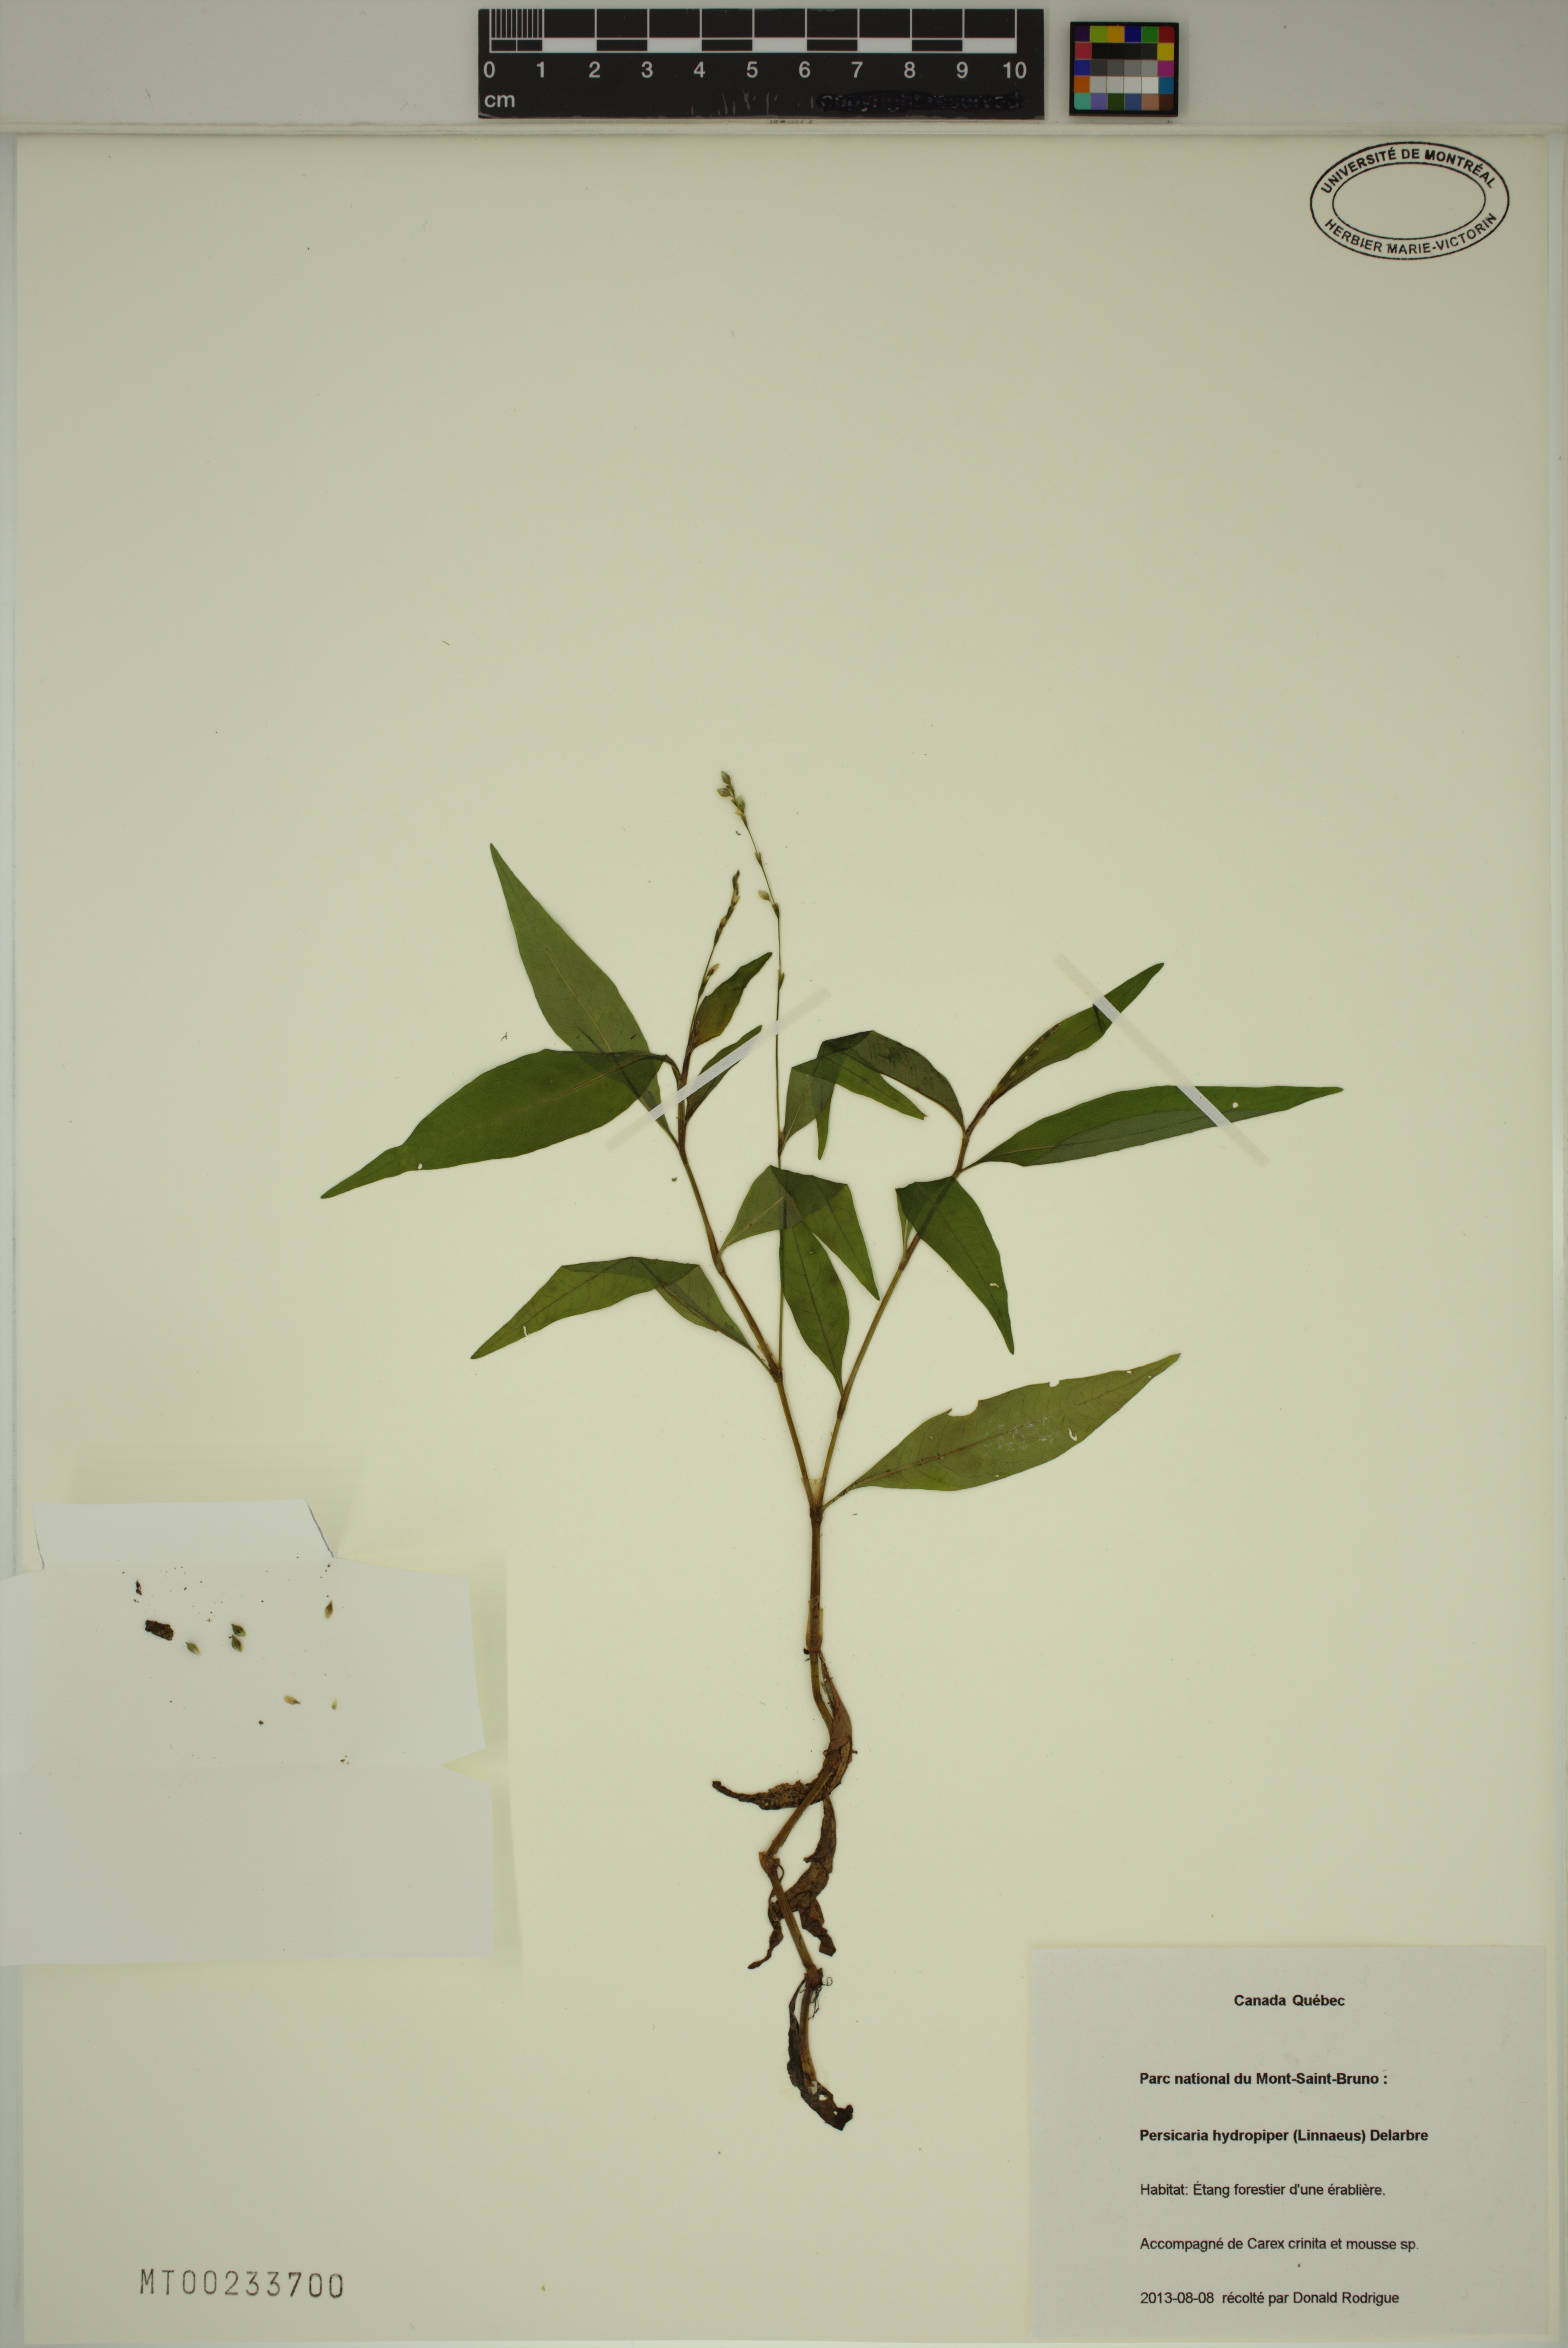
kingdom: Plantae
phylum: Tracheophyta
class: Magnoliopsida
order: Caryophyllales
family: Polygonaceae
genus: Persicaria
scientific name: Persicaria hydropiper
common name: Water-pepper
